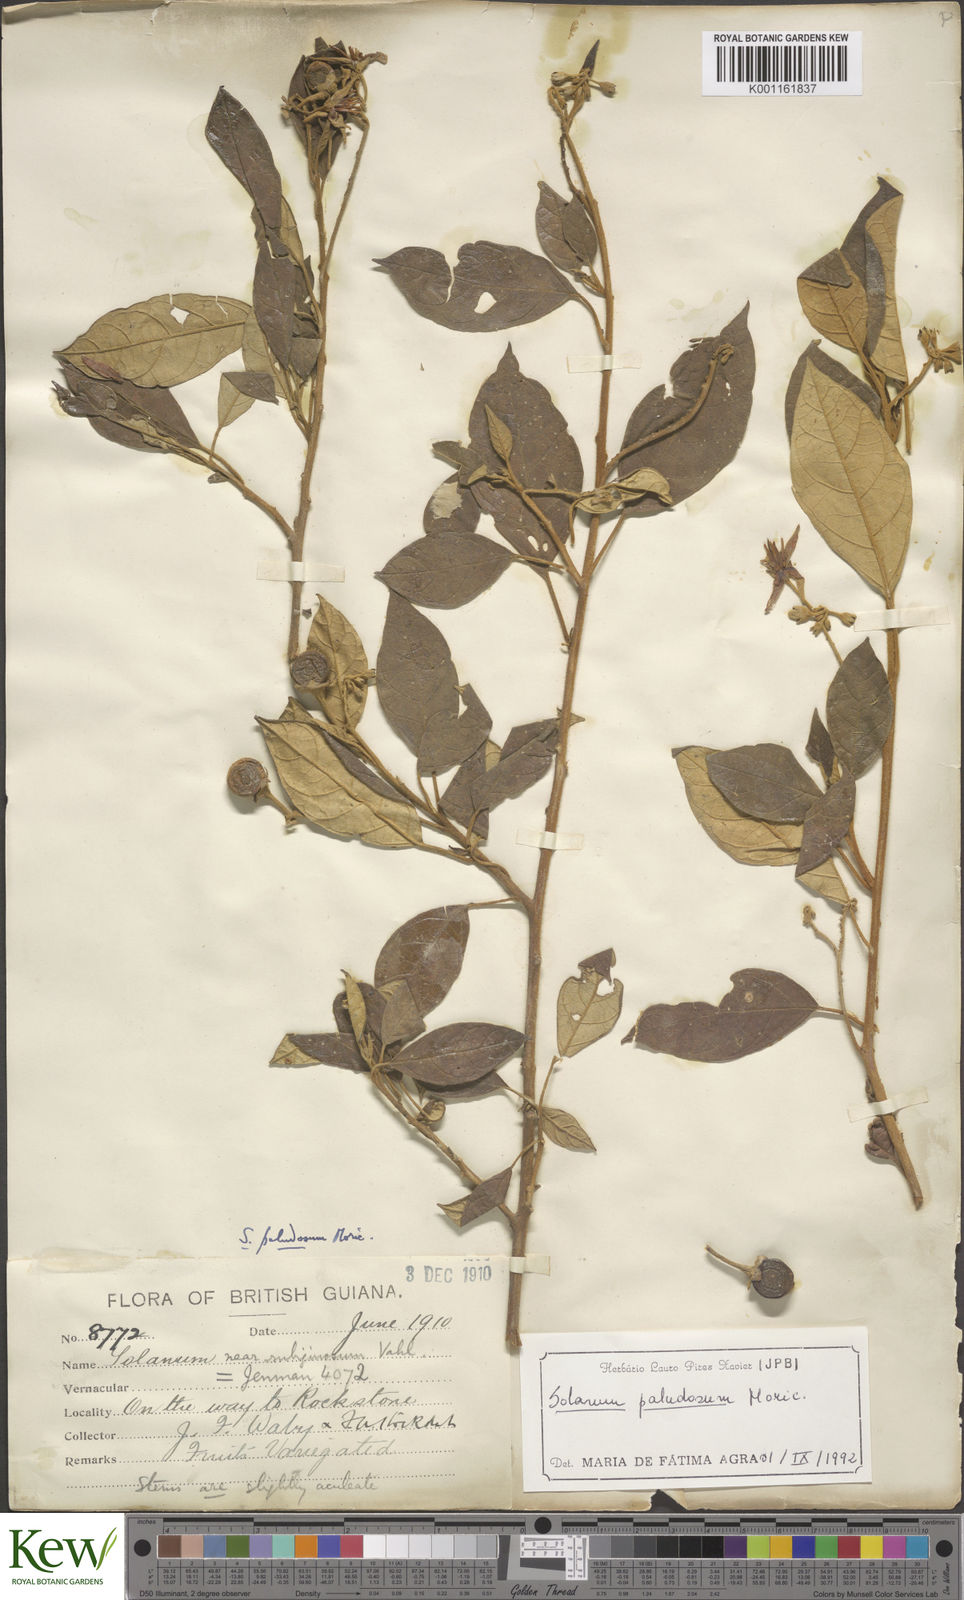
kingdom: Plantae
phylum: Tracheophyta
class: Magnoliopsida
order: Solanales
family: Solanaceae
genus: Solanum
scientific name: Solanum paludosum
